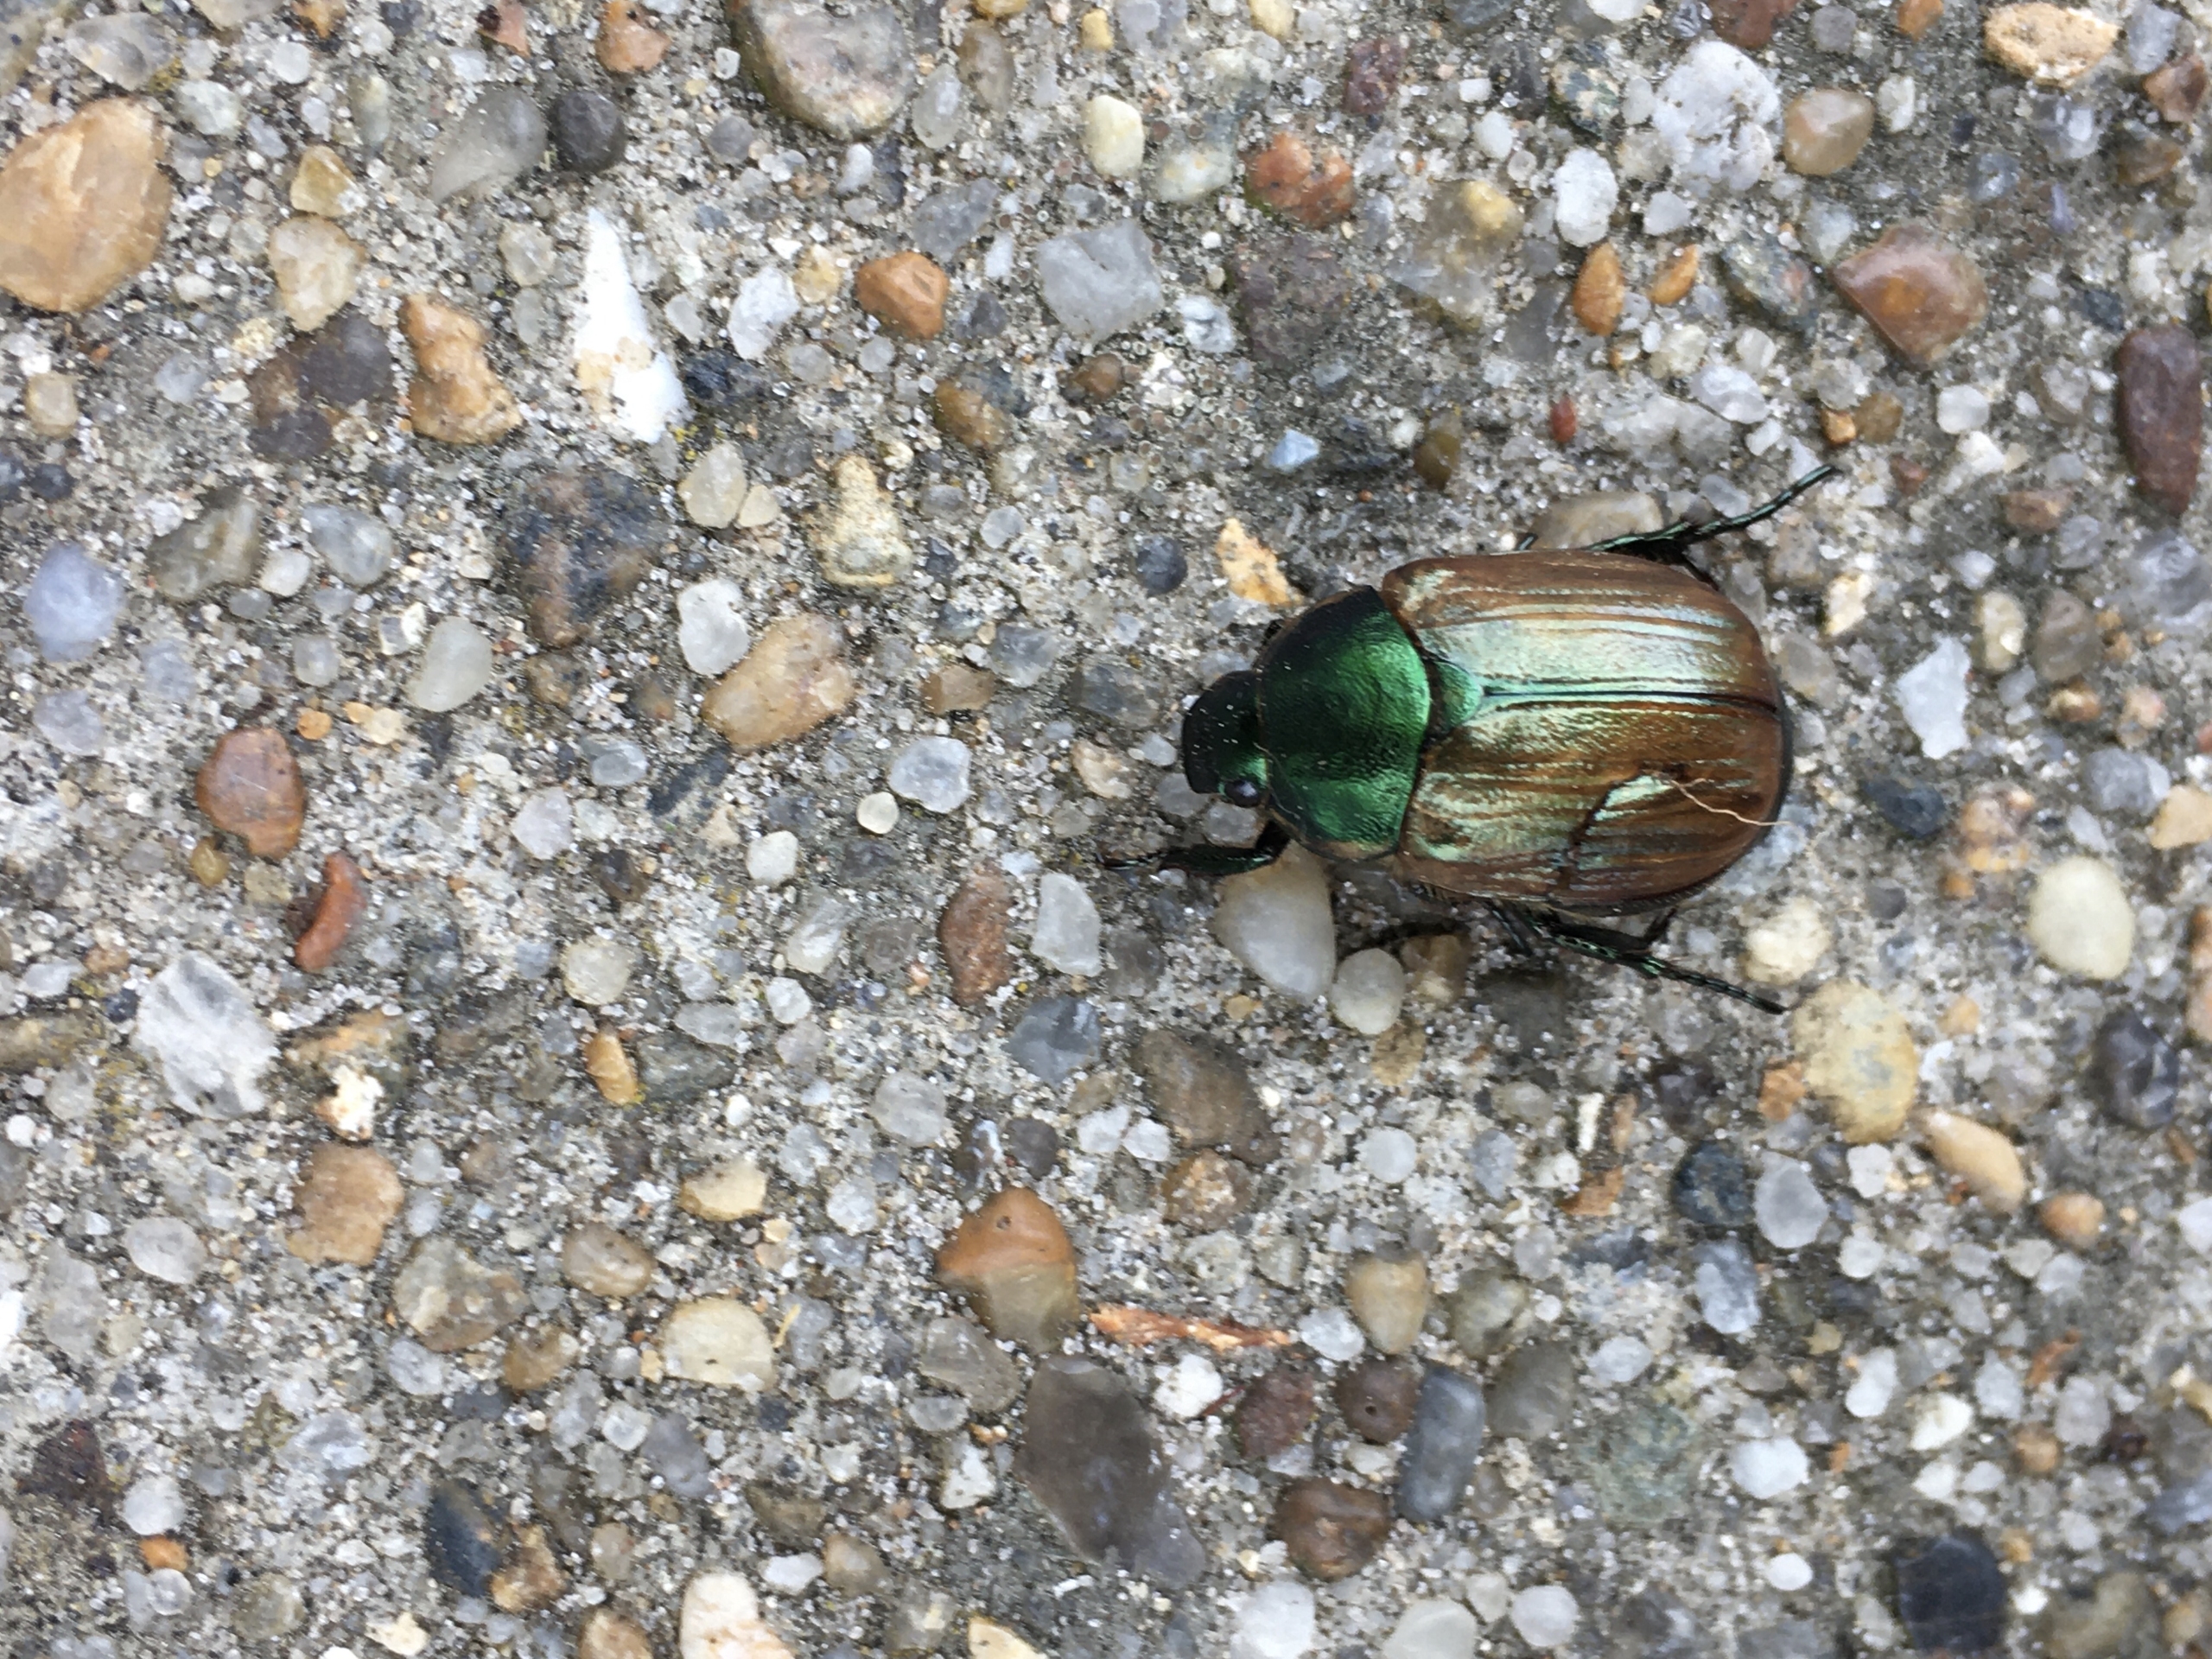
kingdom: Animalia
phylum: Arthropoda
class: Insecta
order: Coleoptera
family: Scarabaeidae
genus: Anomala
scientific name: Anomala dubia
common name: Klitoldenborre
